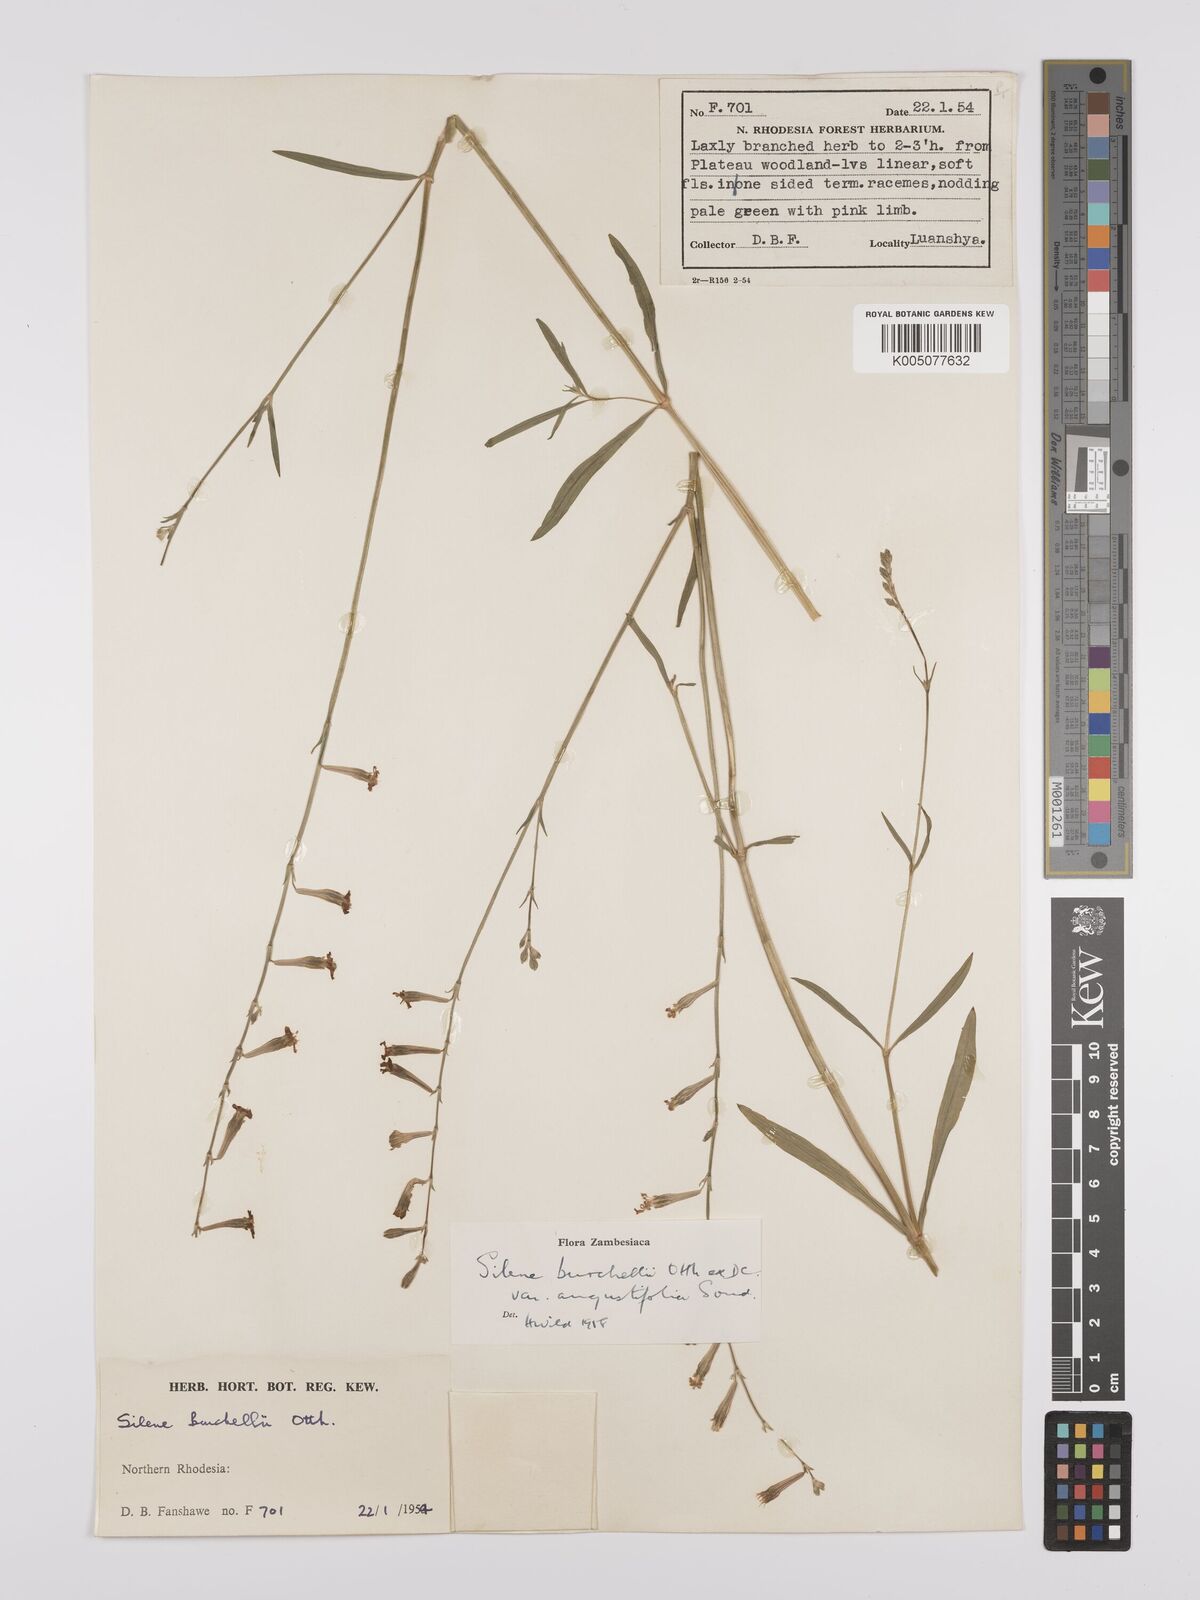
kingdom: Plantae
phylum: Tracheophyta
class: Magnoliopsida
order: Caryophyllales
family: Caryophyllaceae
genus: Silene
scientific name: Silene burchellii
